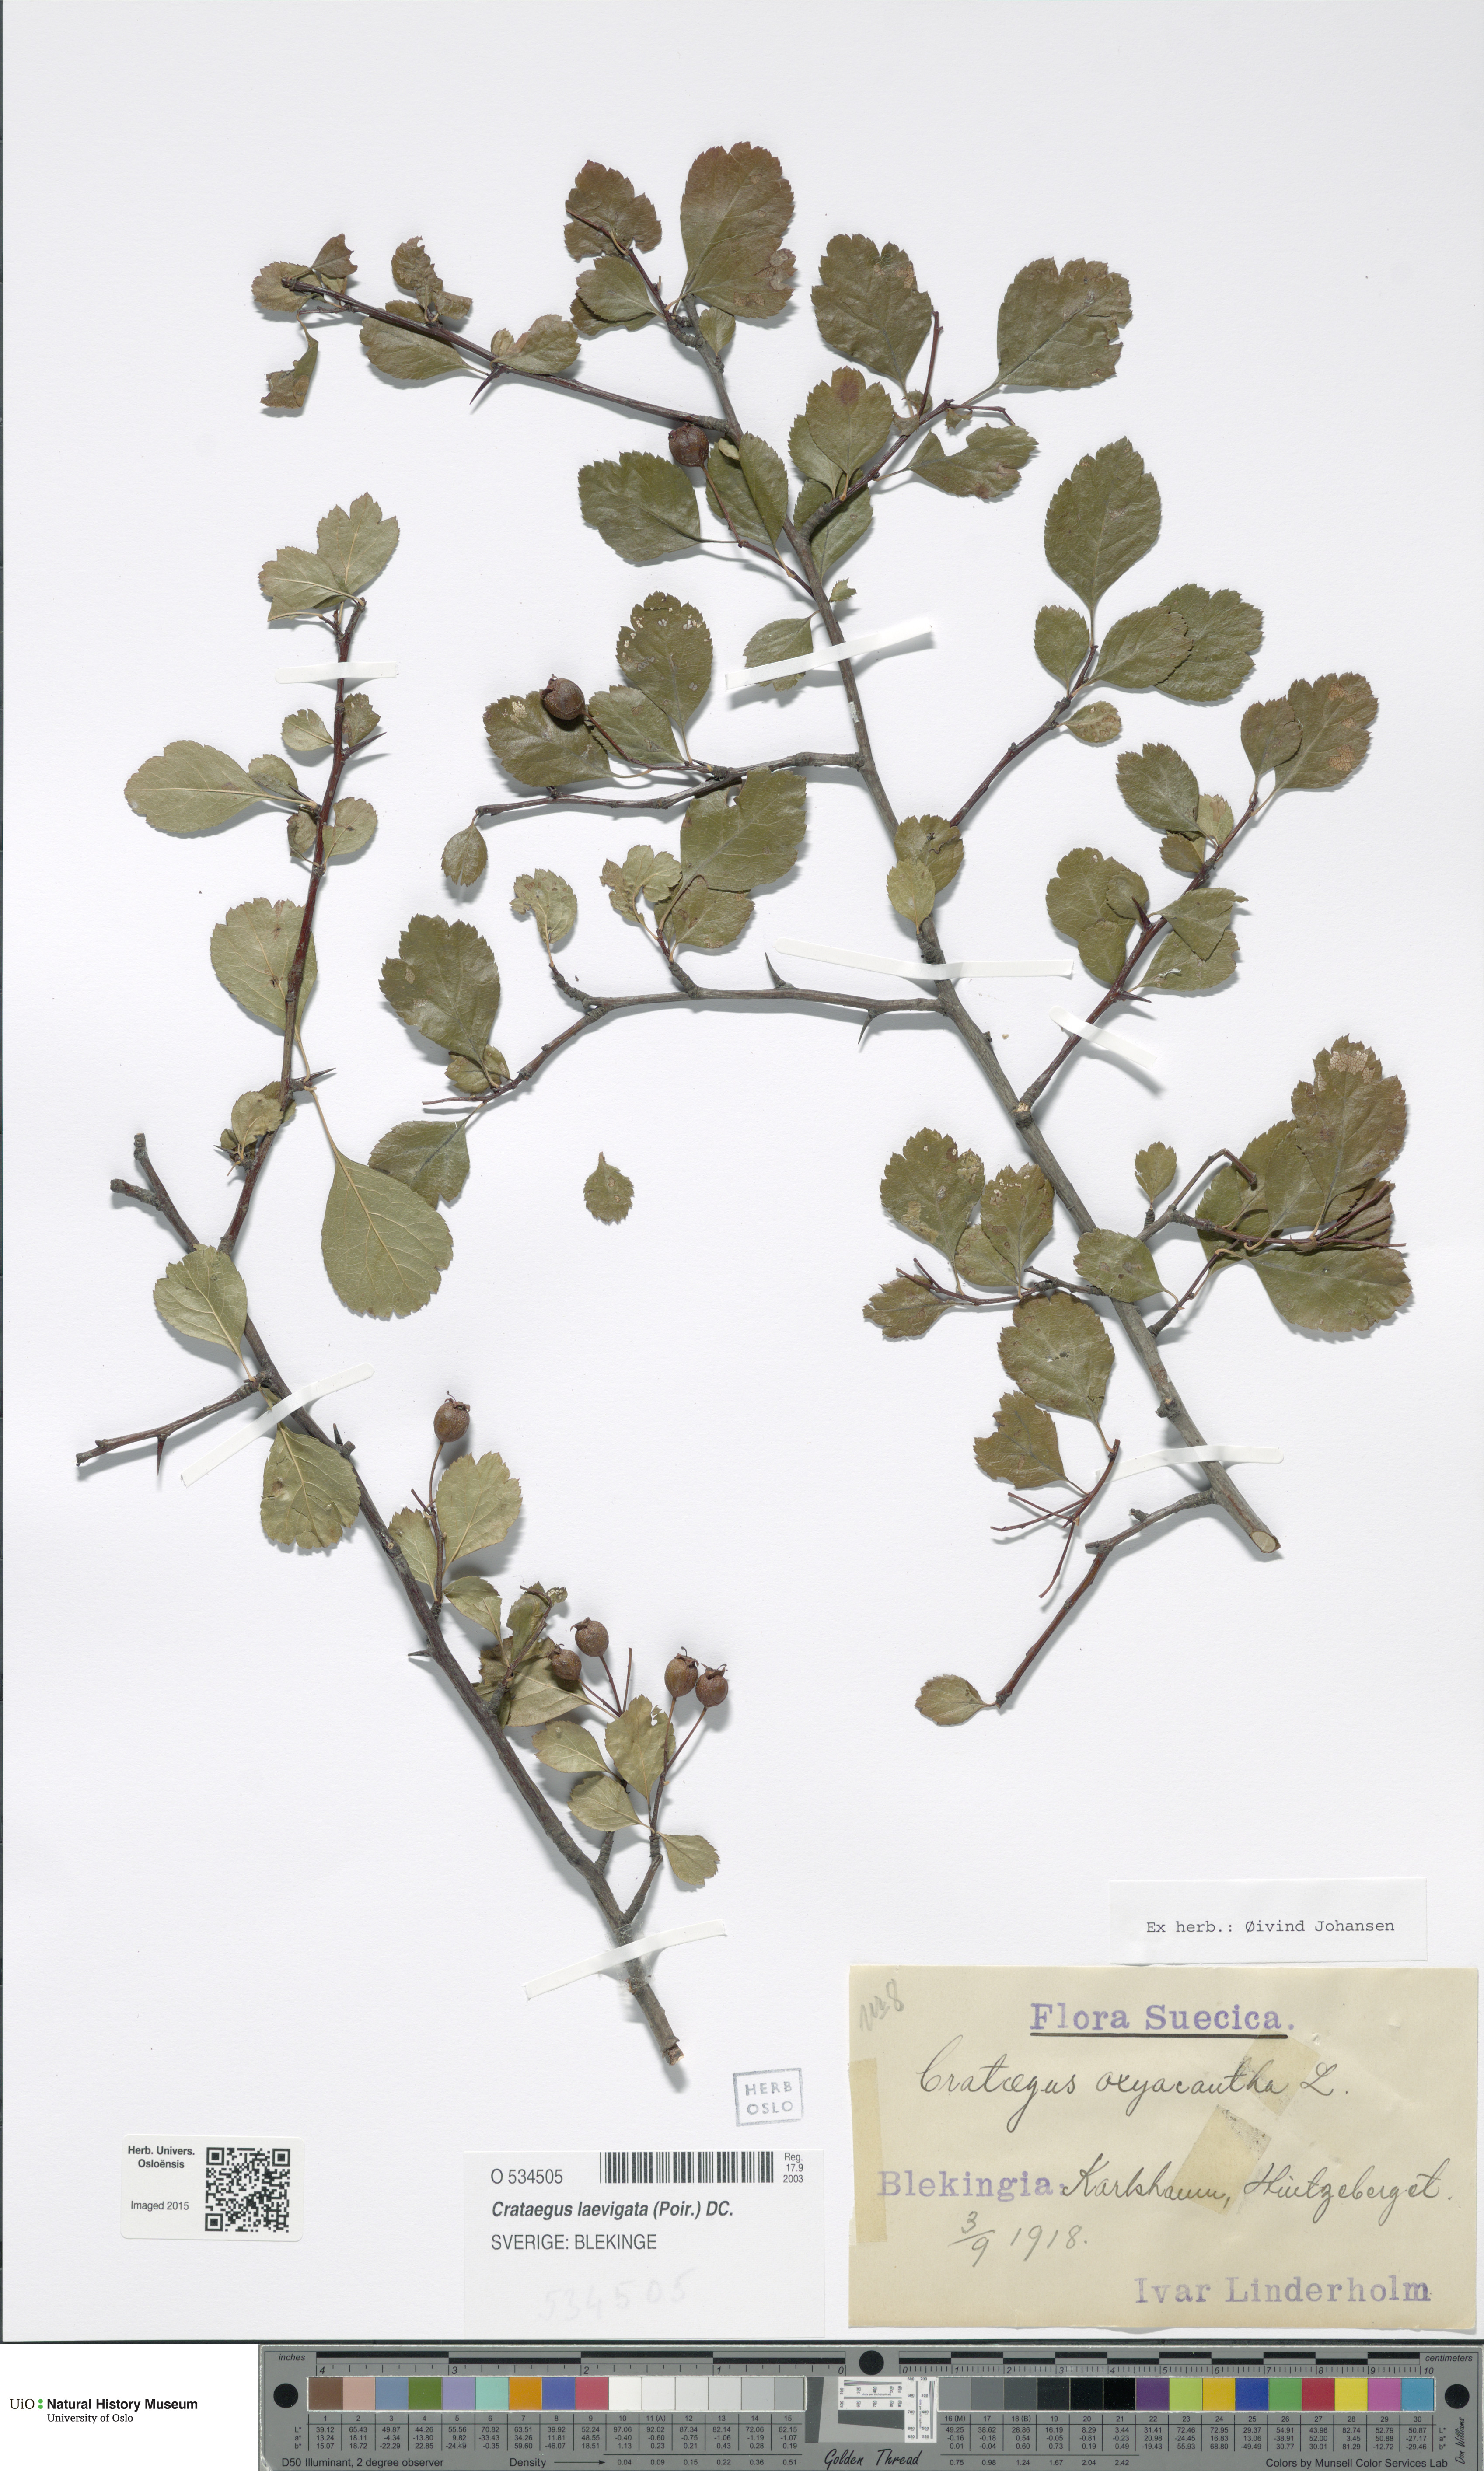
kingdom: Plantae
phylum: Tracheophyta
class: Magnoliopsida
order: Rosales
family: Rosaceae
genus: Crataegus
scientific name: Crataegus laevigata
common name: Midland hawthorn
